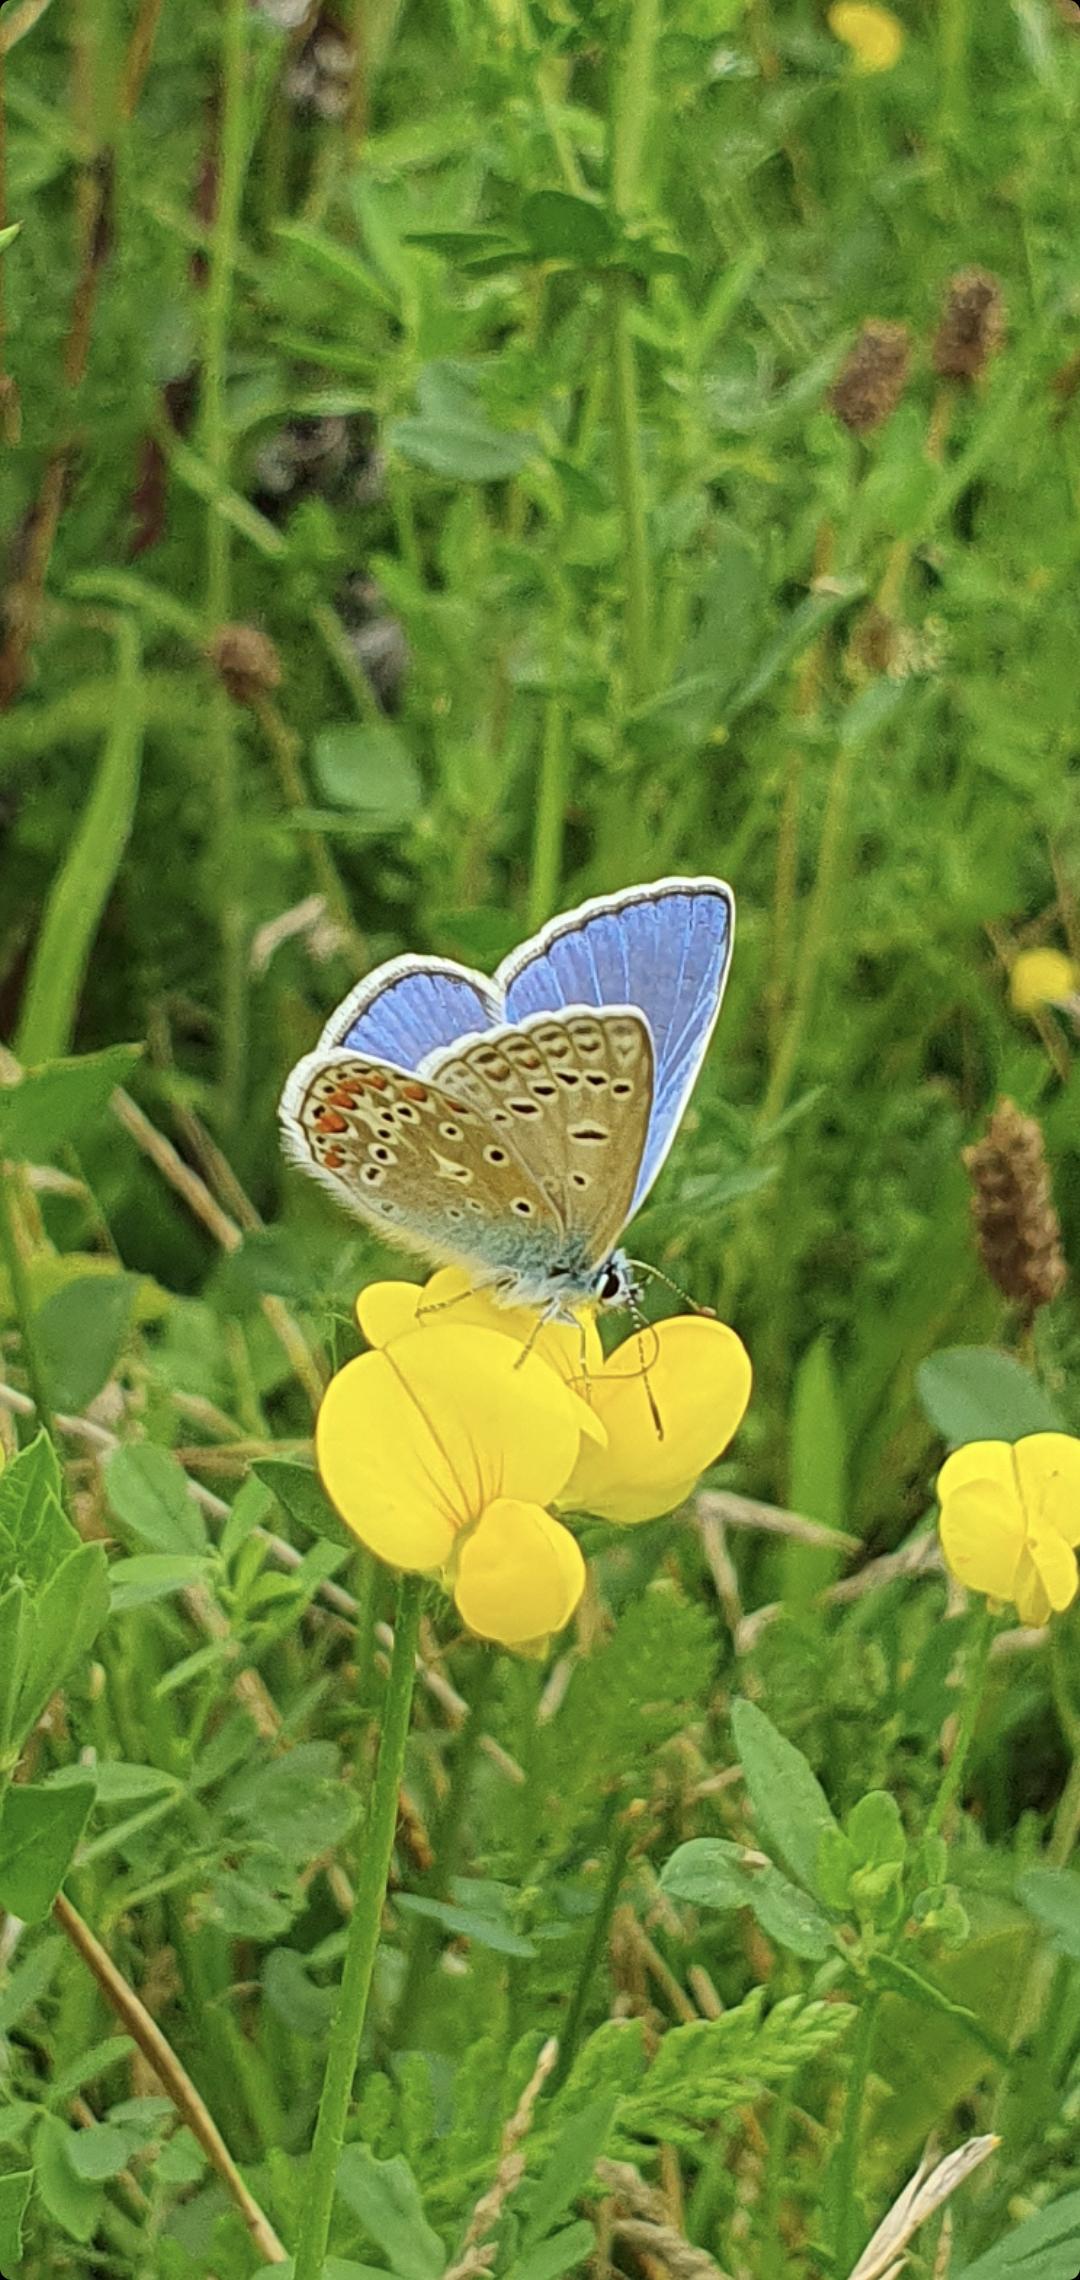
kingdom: Animalia
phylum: Arthropoda
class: Insecta
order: Lepidoptera
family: Lycaenidae
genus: Polyommatus
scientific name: Polyommatus icarus
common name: Almindelig blåfugl
